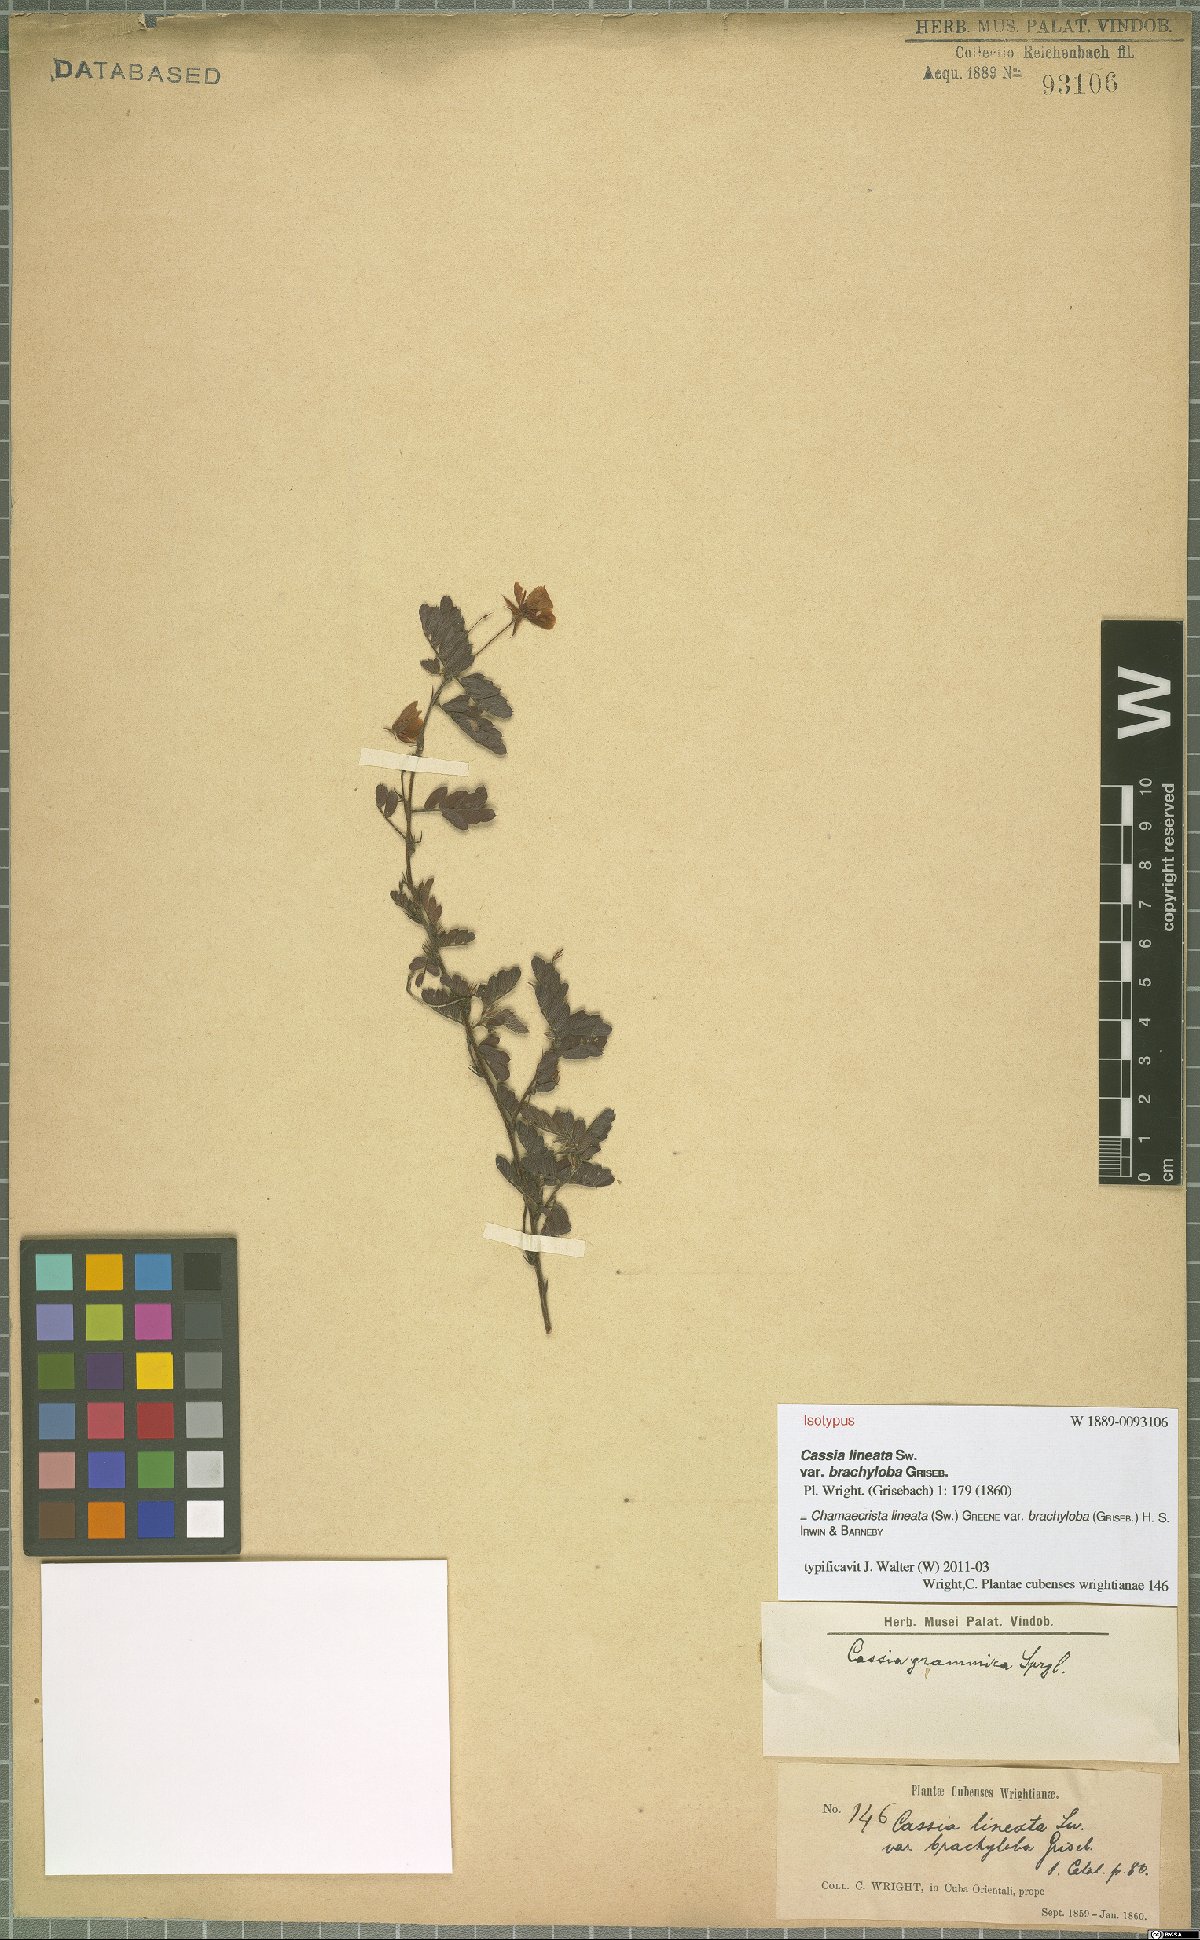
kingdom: Plantae
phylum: Tracheophyta
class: Magnoliopsida
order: Fabales
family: Fabaceae
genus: Chamaecrista
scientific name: Chamaecrista lineata
